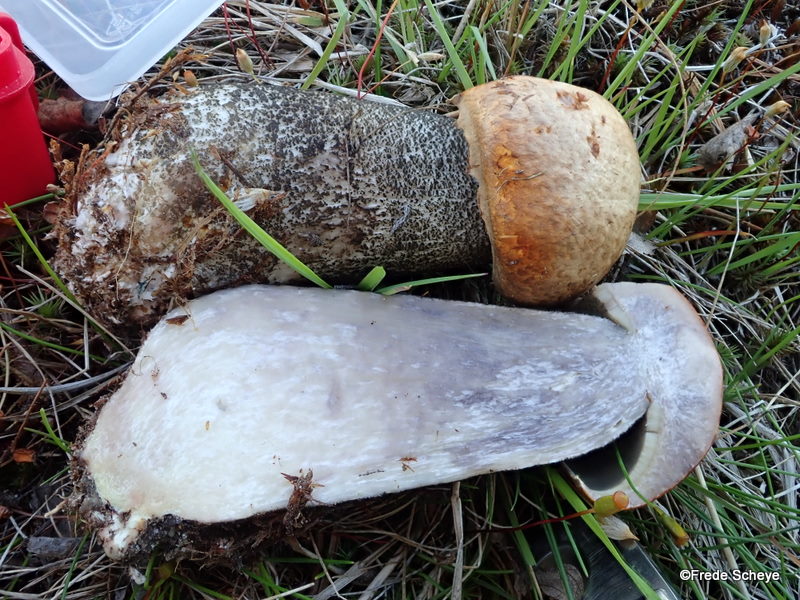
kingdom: Fungi
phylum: Basidiomycota
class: Agaricomycetes
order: Boletales
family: Boletaceae
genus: Leccinum
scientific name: Leccinum versipelle
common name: orange skælrørhat
